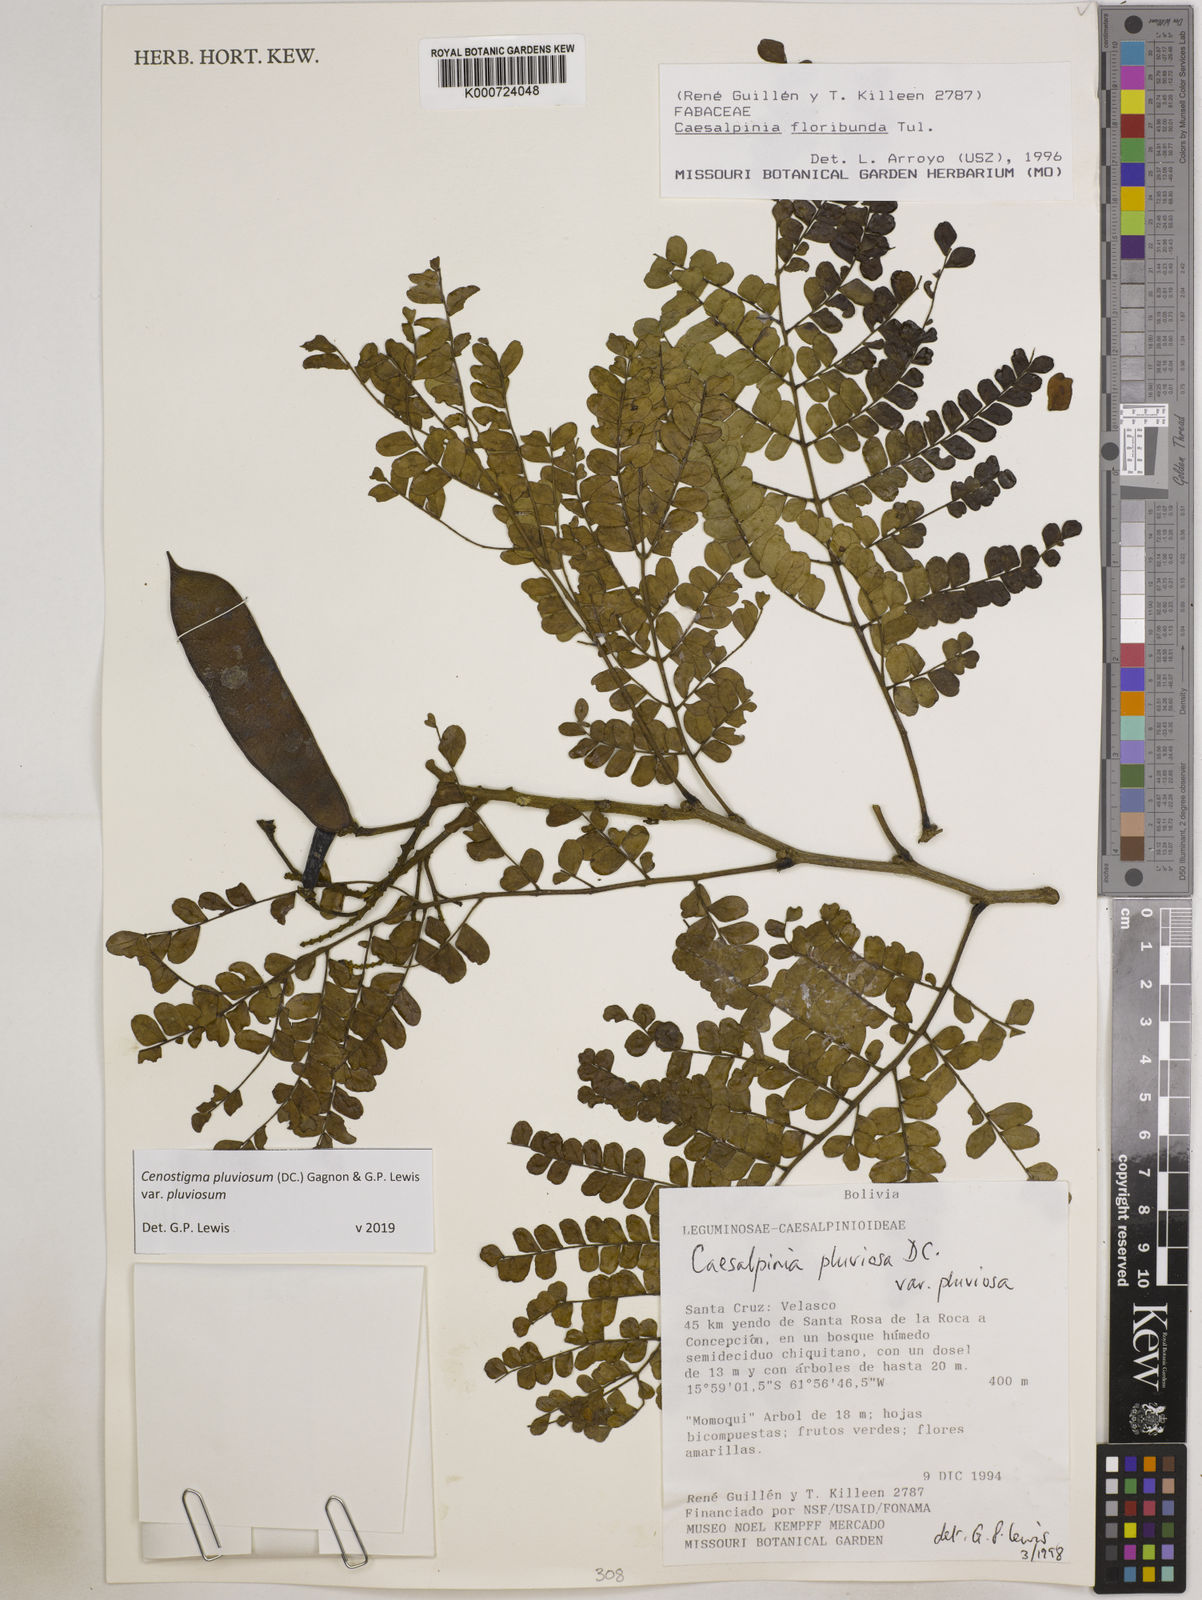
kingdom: Plantae
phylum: Tracheophyta
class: Magnoliopsida
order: Fabales
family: Fabaceae
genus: Cenostigma
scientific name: Cenostigma pluviosum
